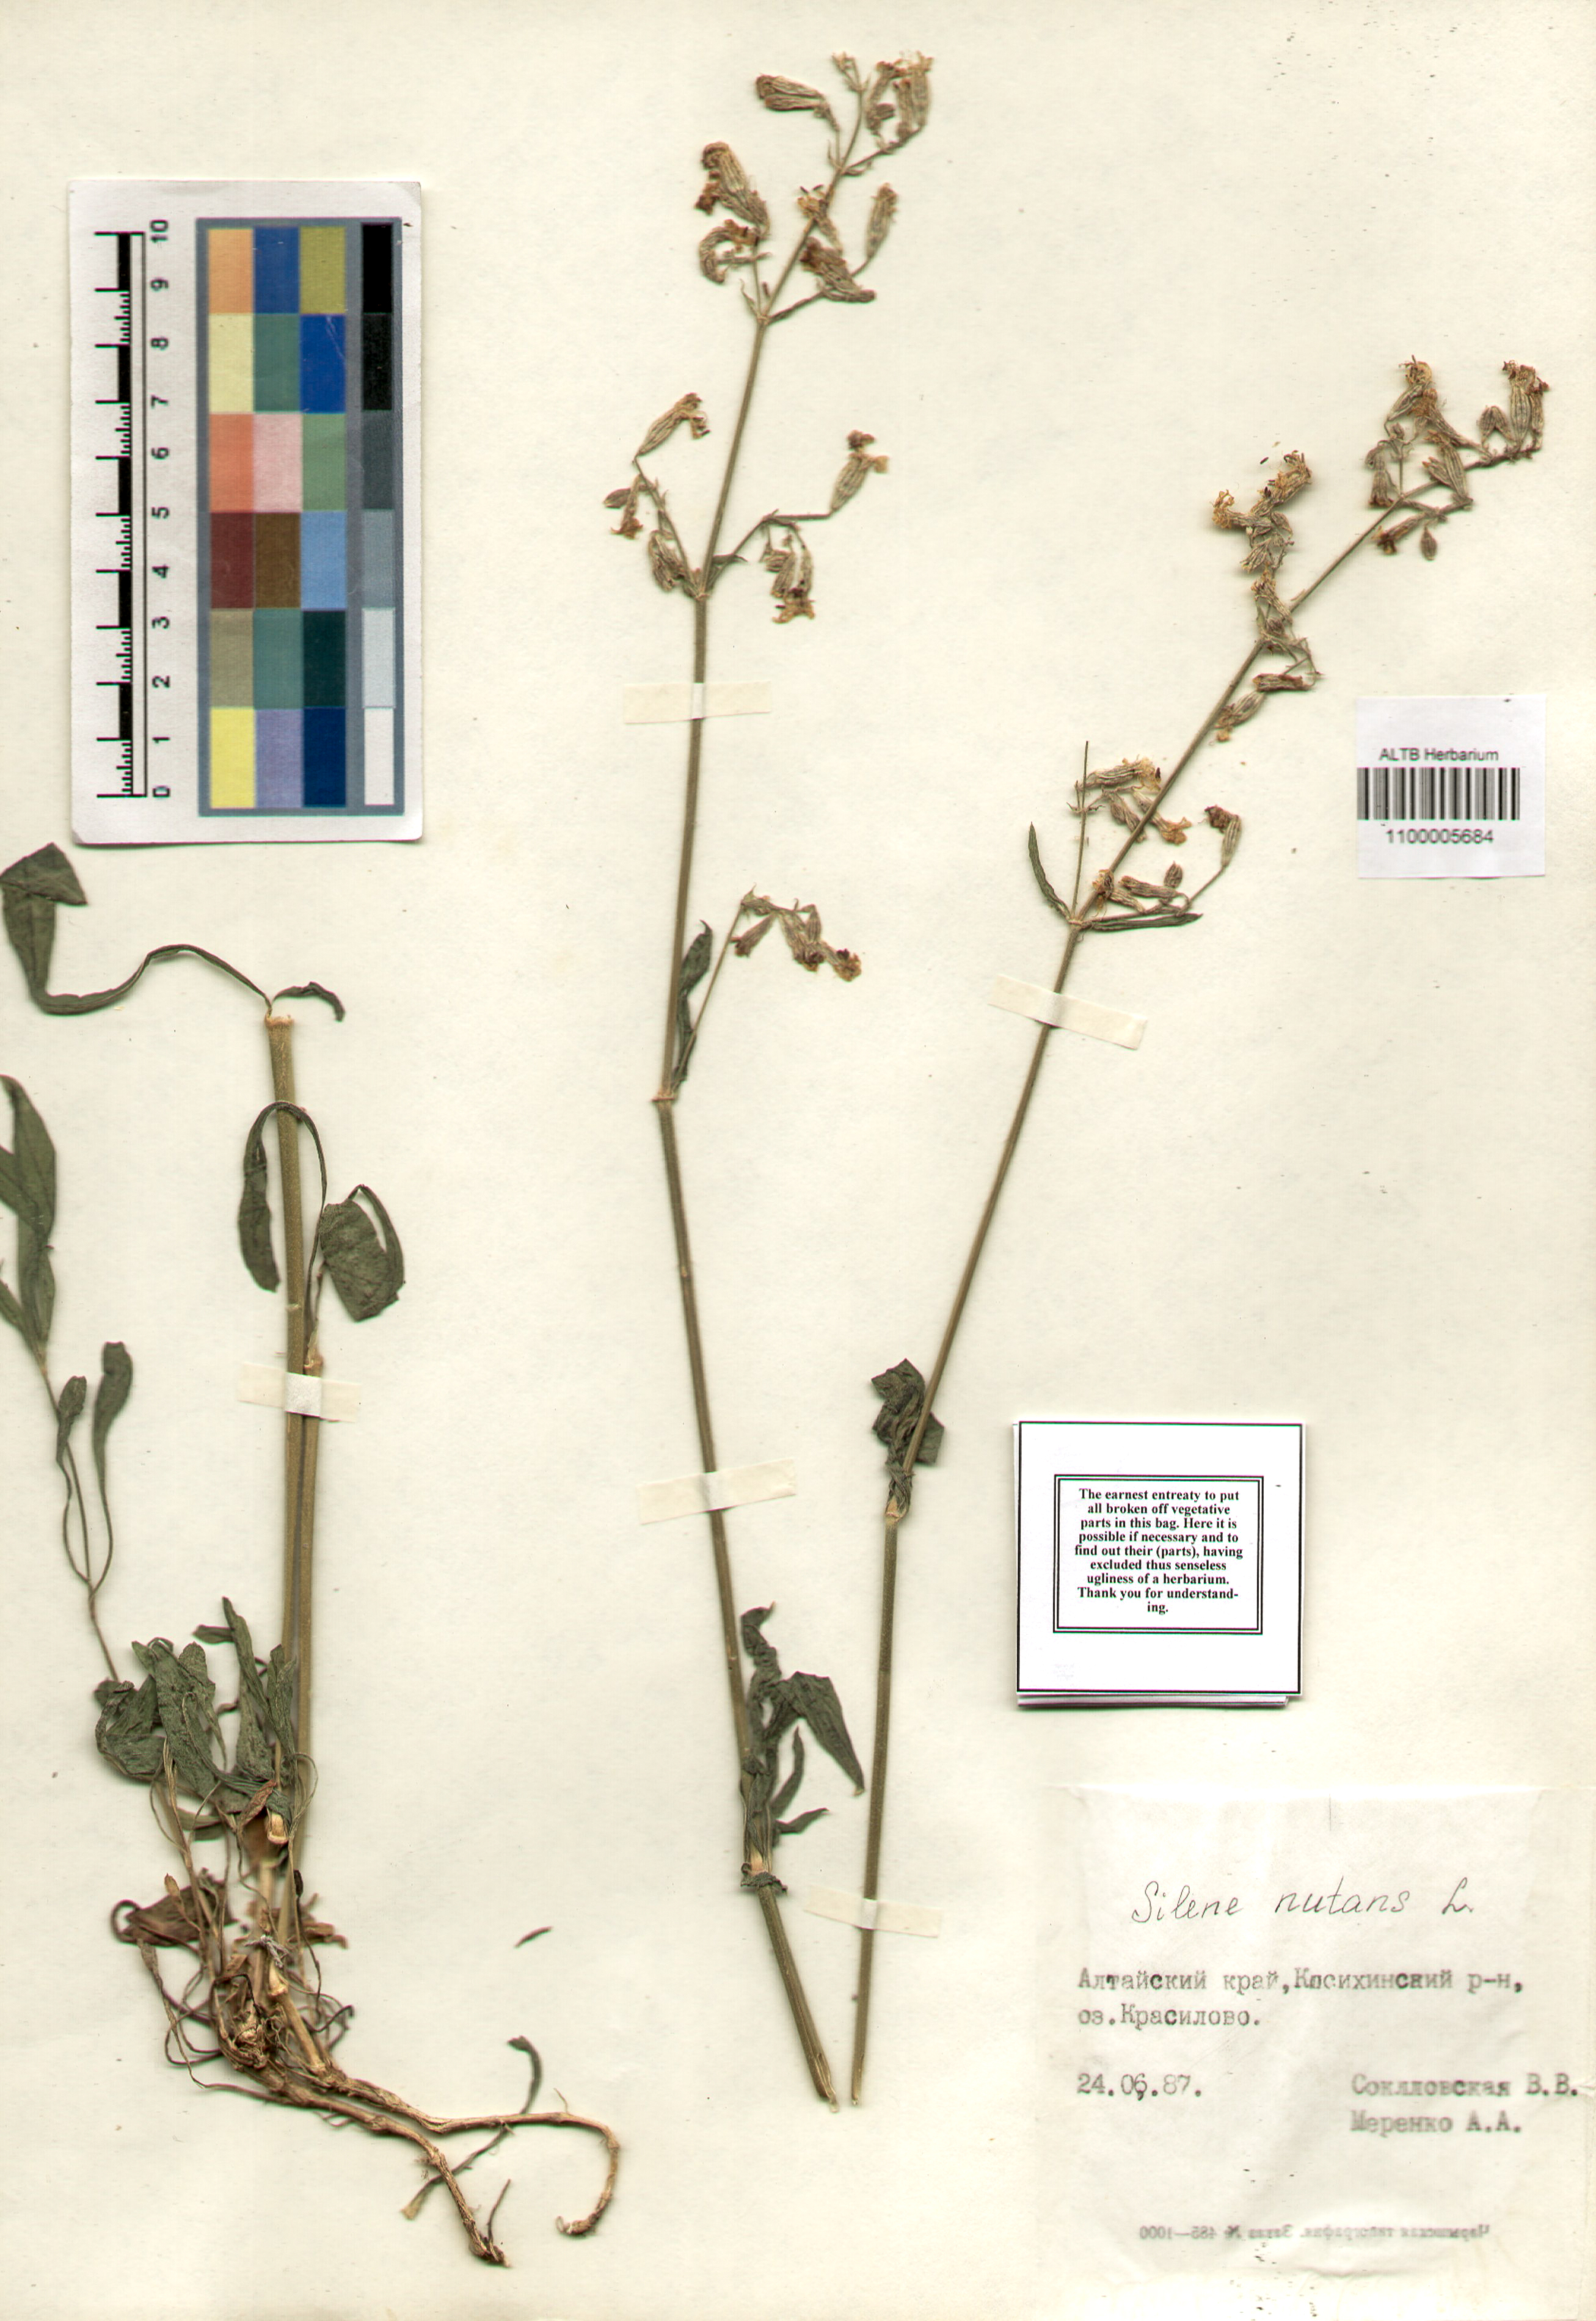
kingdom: Plantae
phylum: Tracheophyta
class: Magnoliopsida
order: Caryophyllales
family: Caryophyllaceae
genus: Silene
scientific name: Silene nutans
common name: Nottingham catchfly
